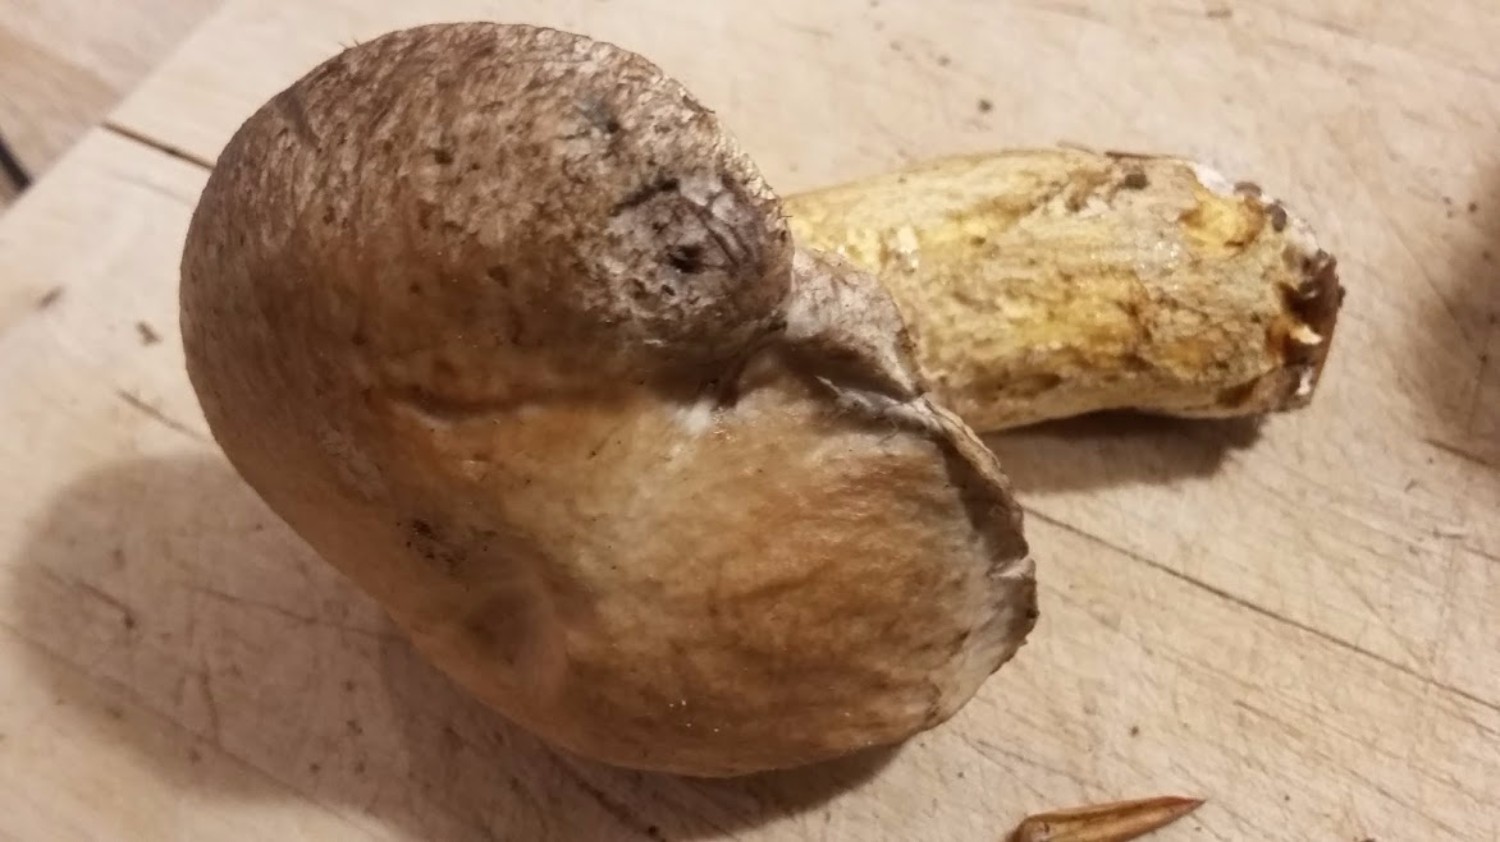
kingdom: Fungi
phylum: Basidiomycota
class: Agaricomycetes
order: Boletales
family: Suillaceae
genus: Suillus
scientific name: Suillus viscidus
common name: olivengrå slimrørhat
